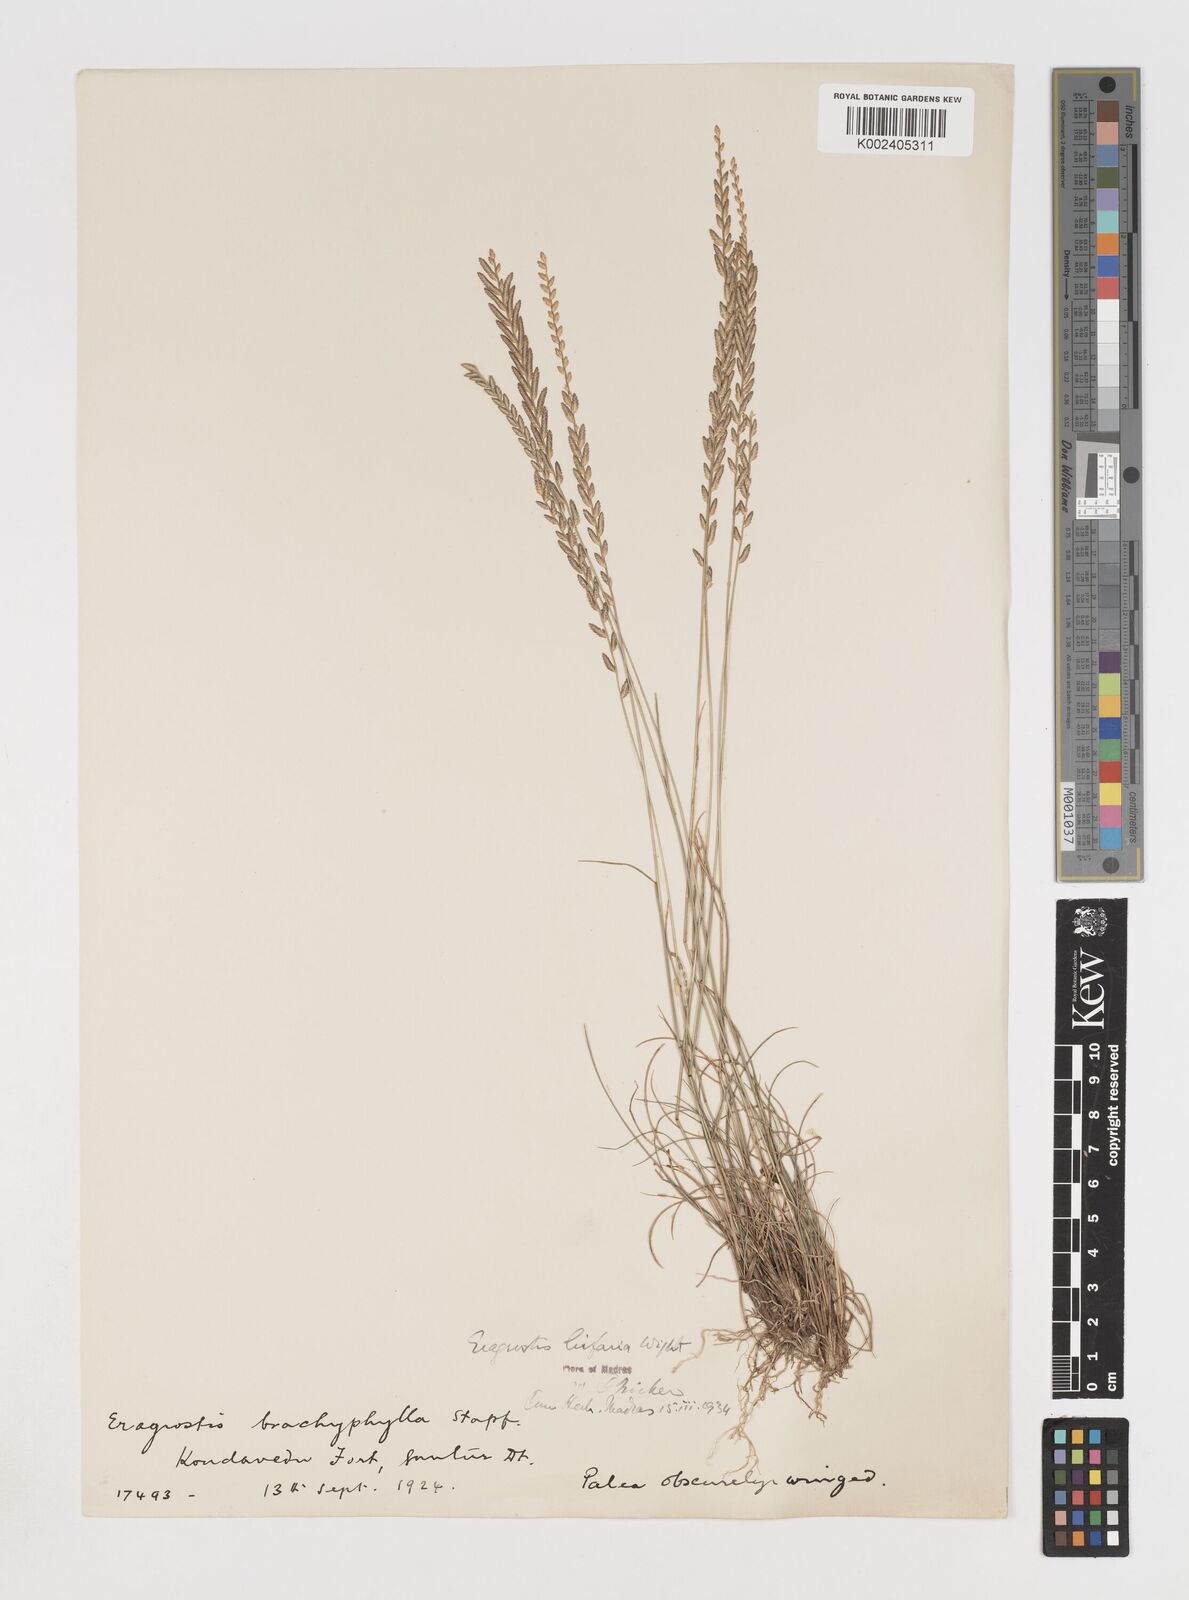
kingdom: Plantae
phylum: Tracheophyta
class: Liliopsida
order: Poales
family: Poaceae
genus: Eragrostiella
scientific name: Eragrostiella bifaria
